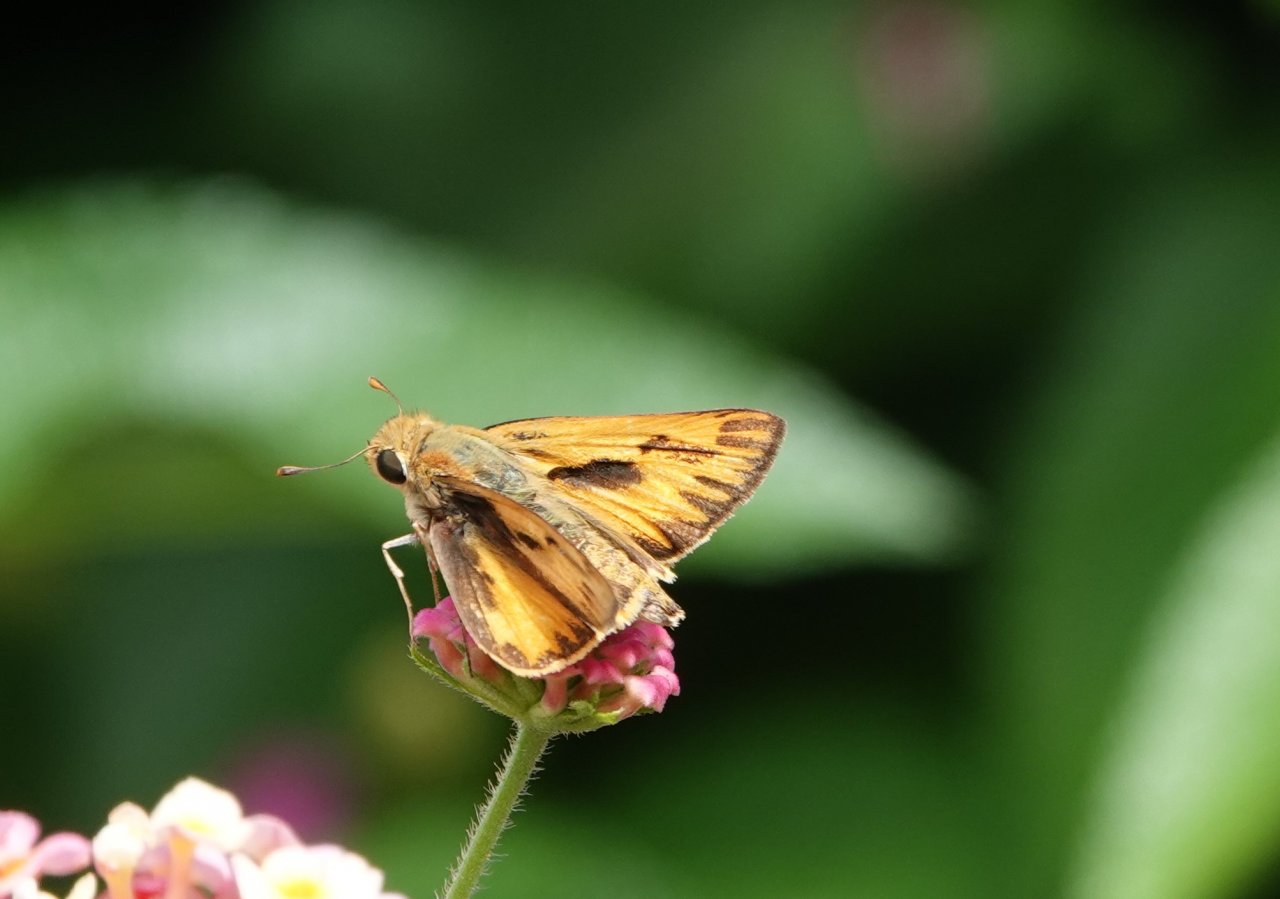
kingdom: Animalia
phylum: Arthropoda
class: Insecta
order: Lepidoptera
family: Hesperiidae
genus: Hylephila
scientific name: Hylephila phyleus
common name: Fiery Skipper
